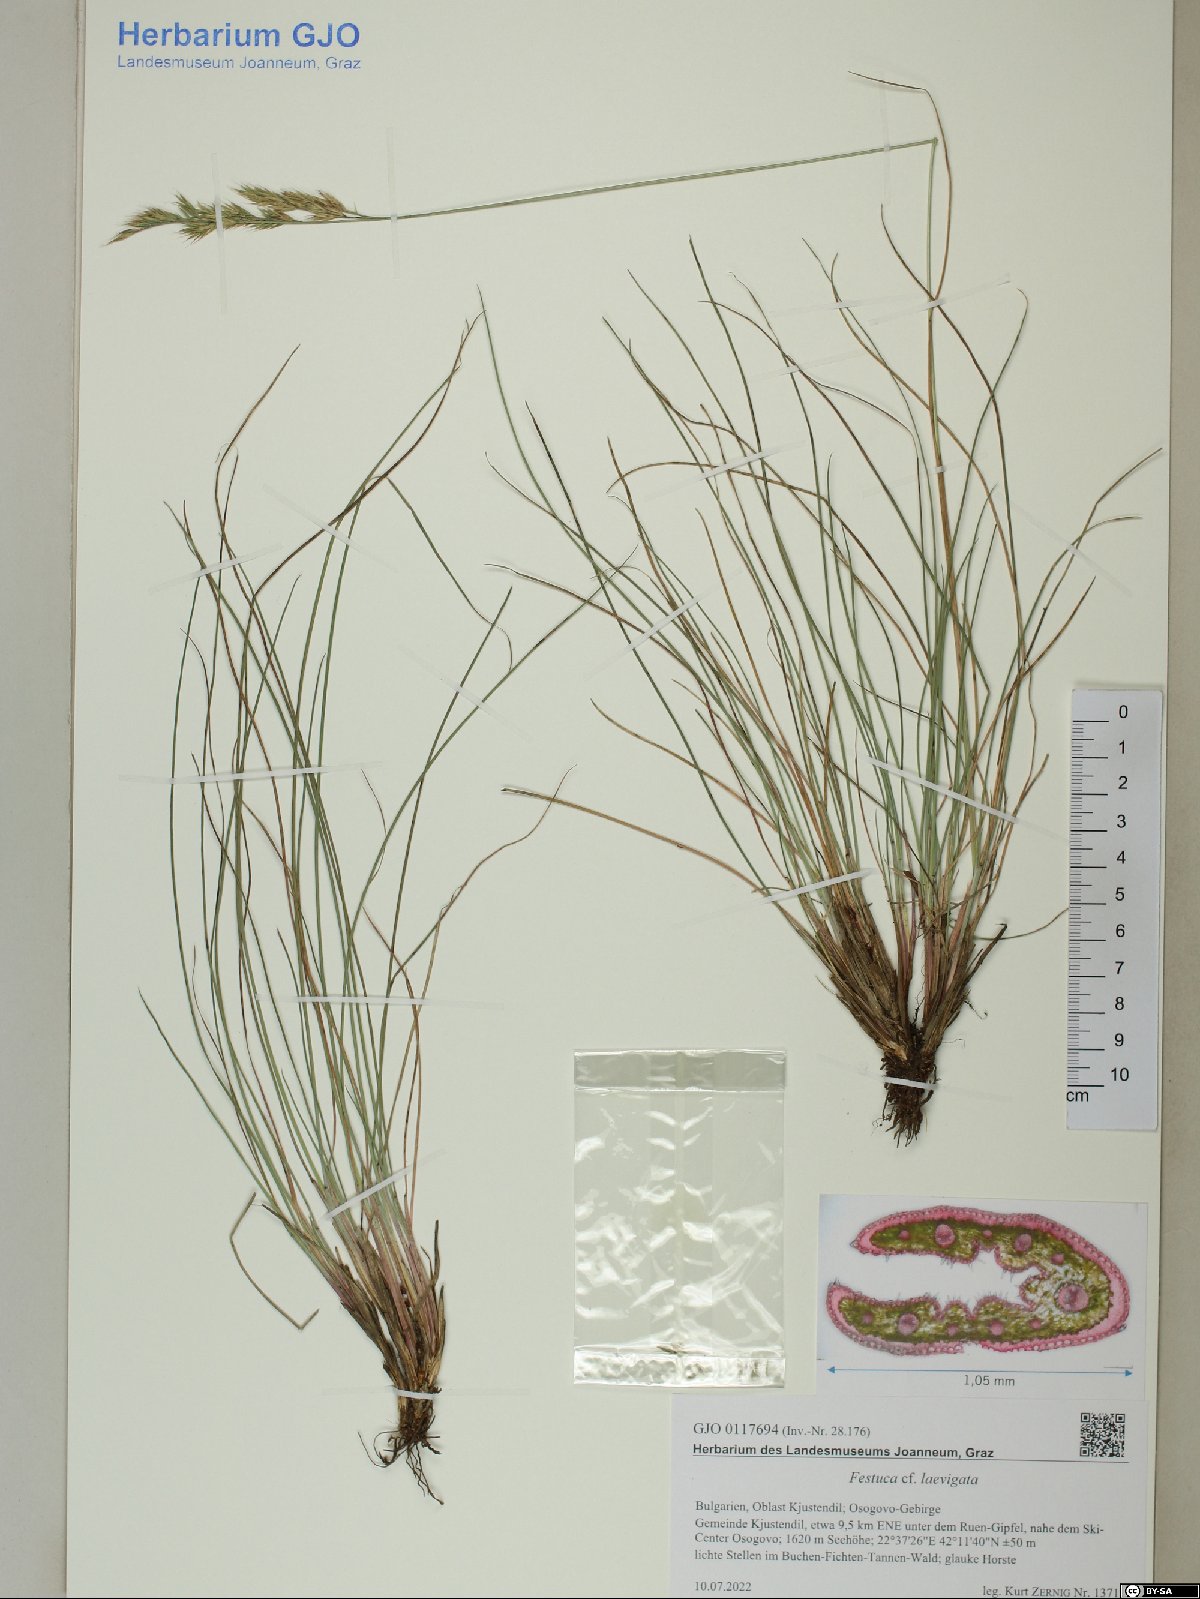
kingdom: Plantae
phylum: Tracheophyta
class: Liliopsida
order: Poales
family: Poaceae
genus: Festuca
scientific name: Festuca laevigata
